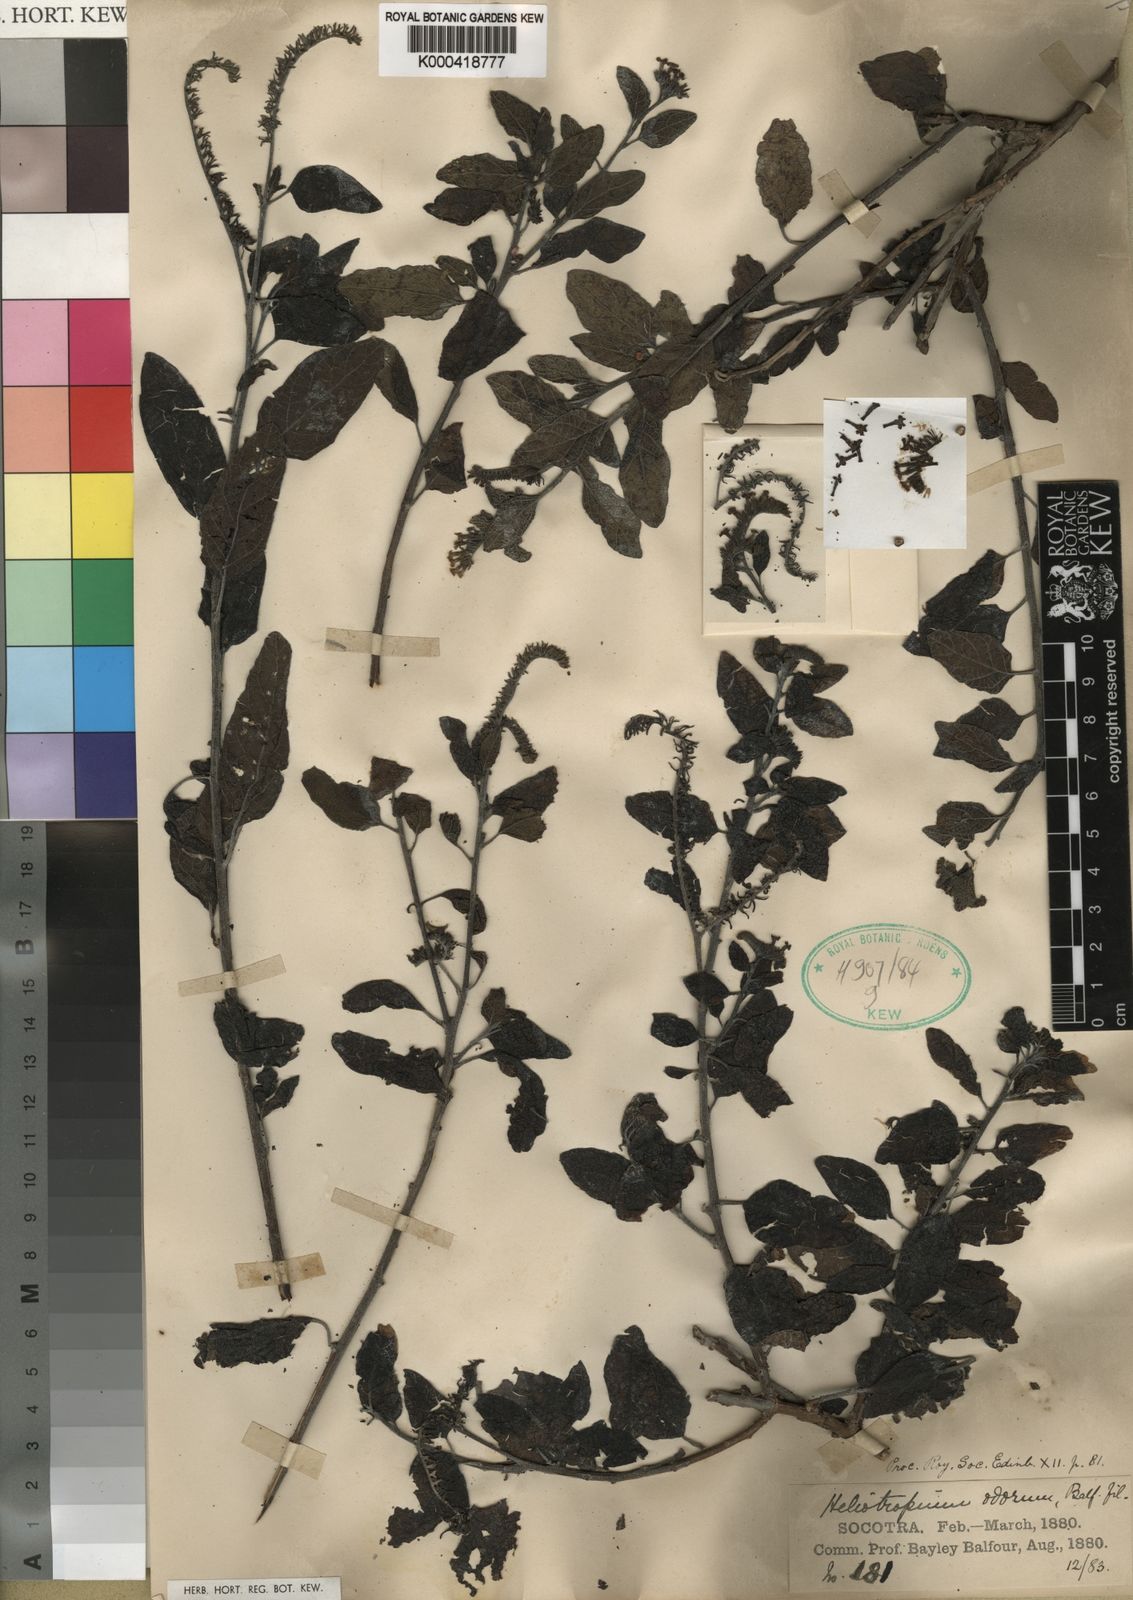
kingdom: Plantae
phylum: Tracheophyta
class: Magnoliopsida
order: Boraginales
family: Heliotropiaceae
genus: Heliotropium
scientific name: Heliotropium
